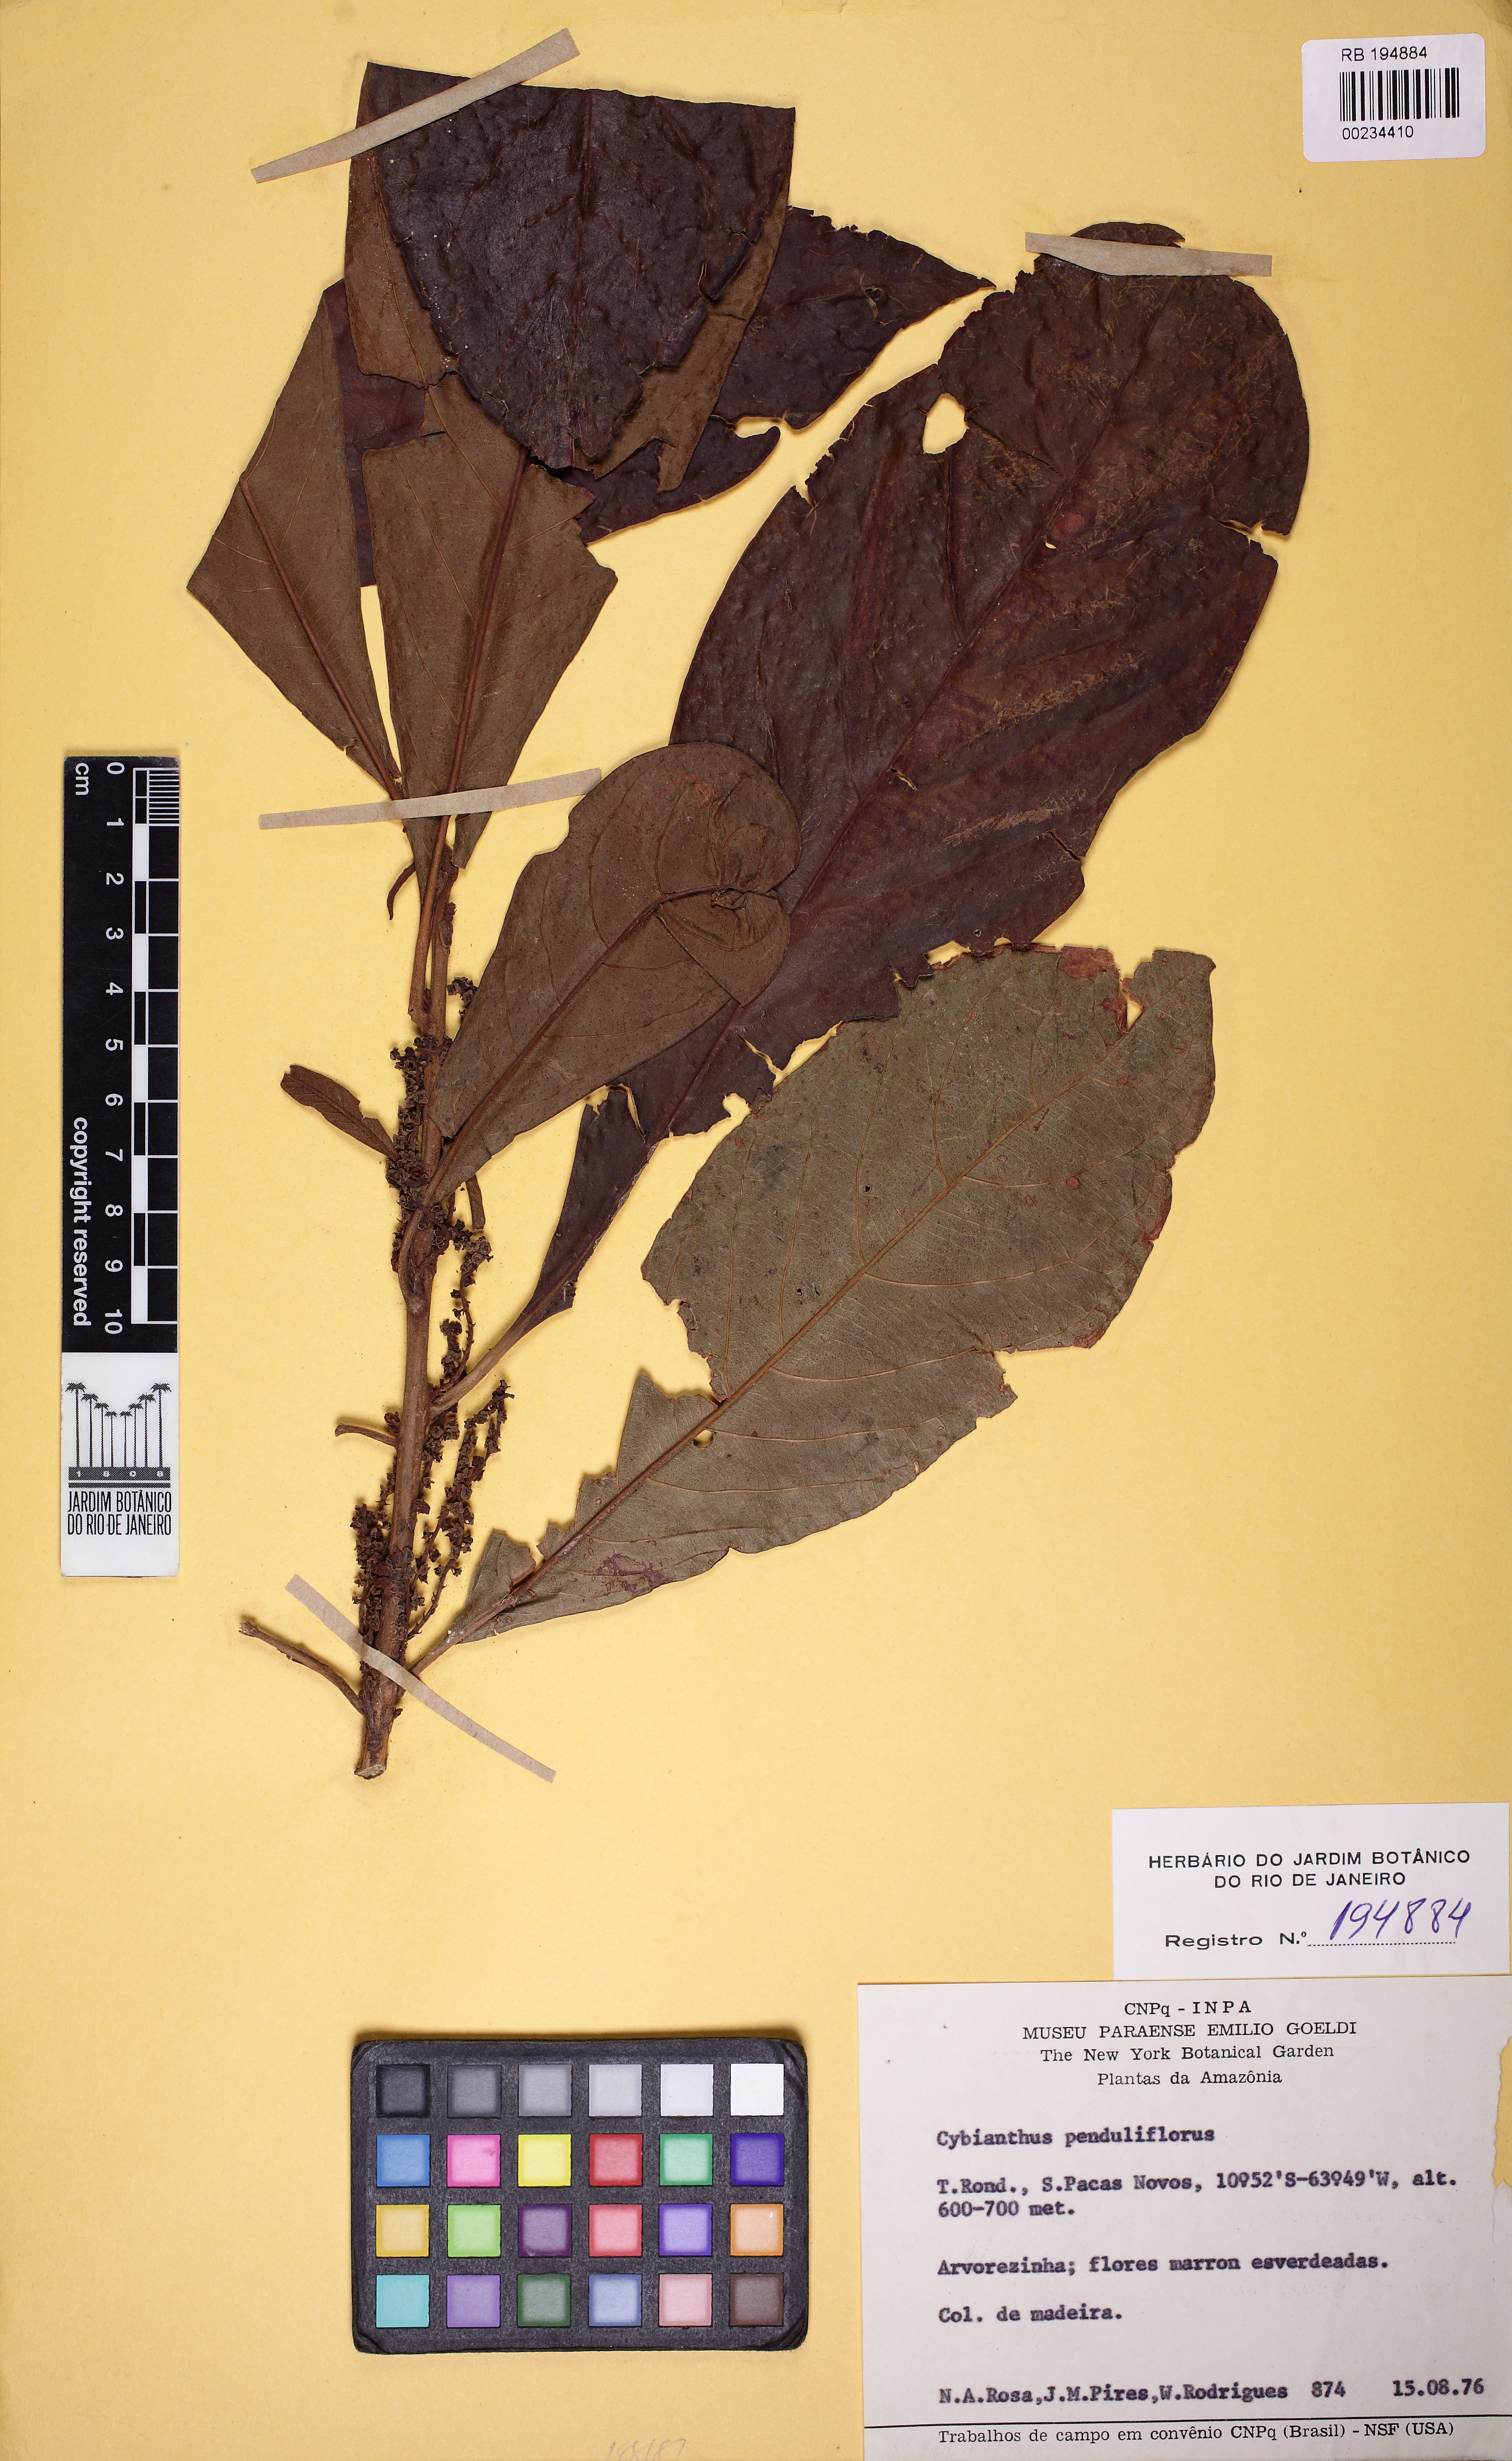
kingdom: Plantae
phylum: Tracheophyta
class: Magnoliopsida
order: Ericales
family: Primulaceae
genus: Cybianthus
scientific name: Cybianthus penduliflorus
